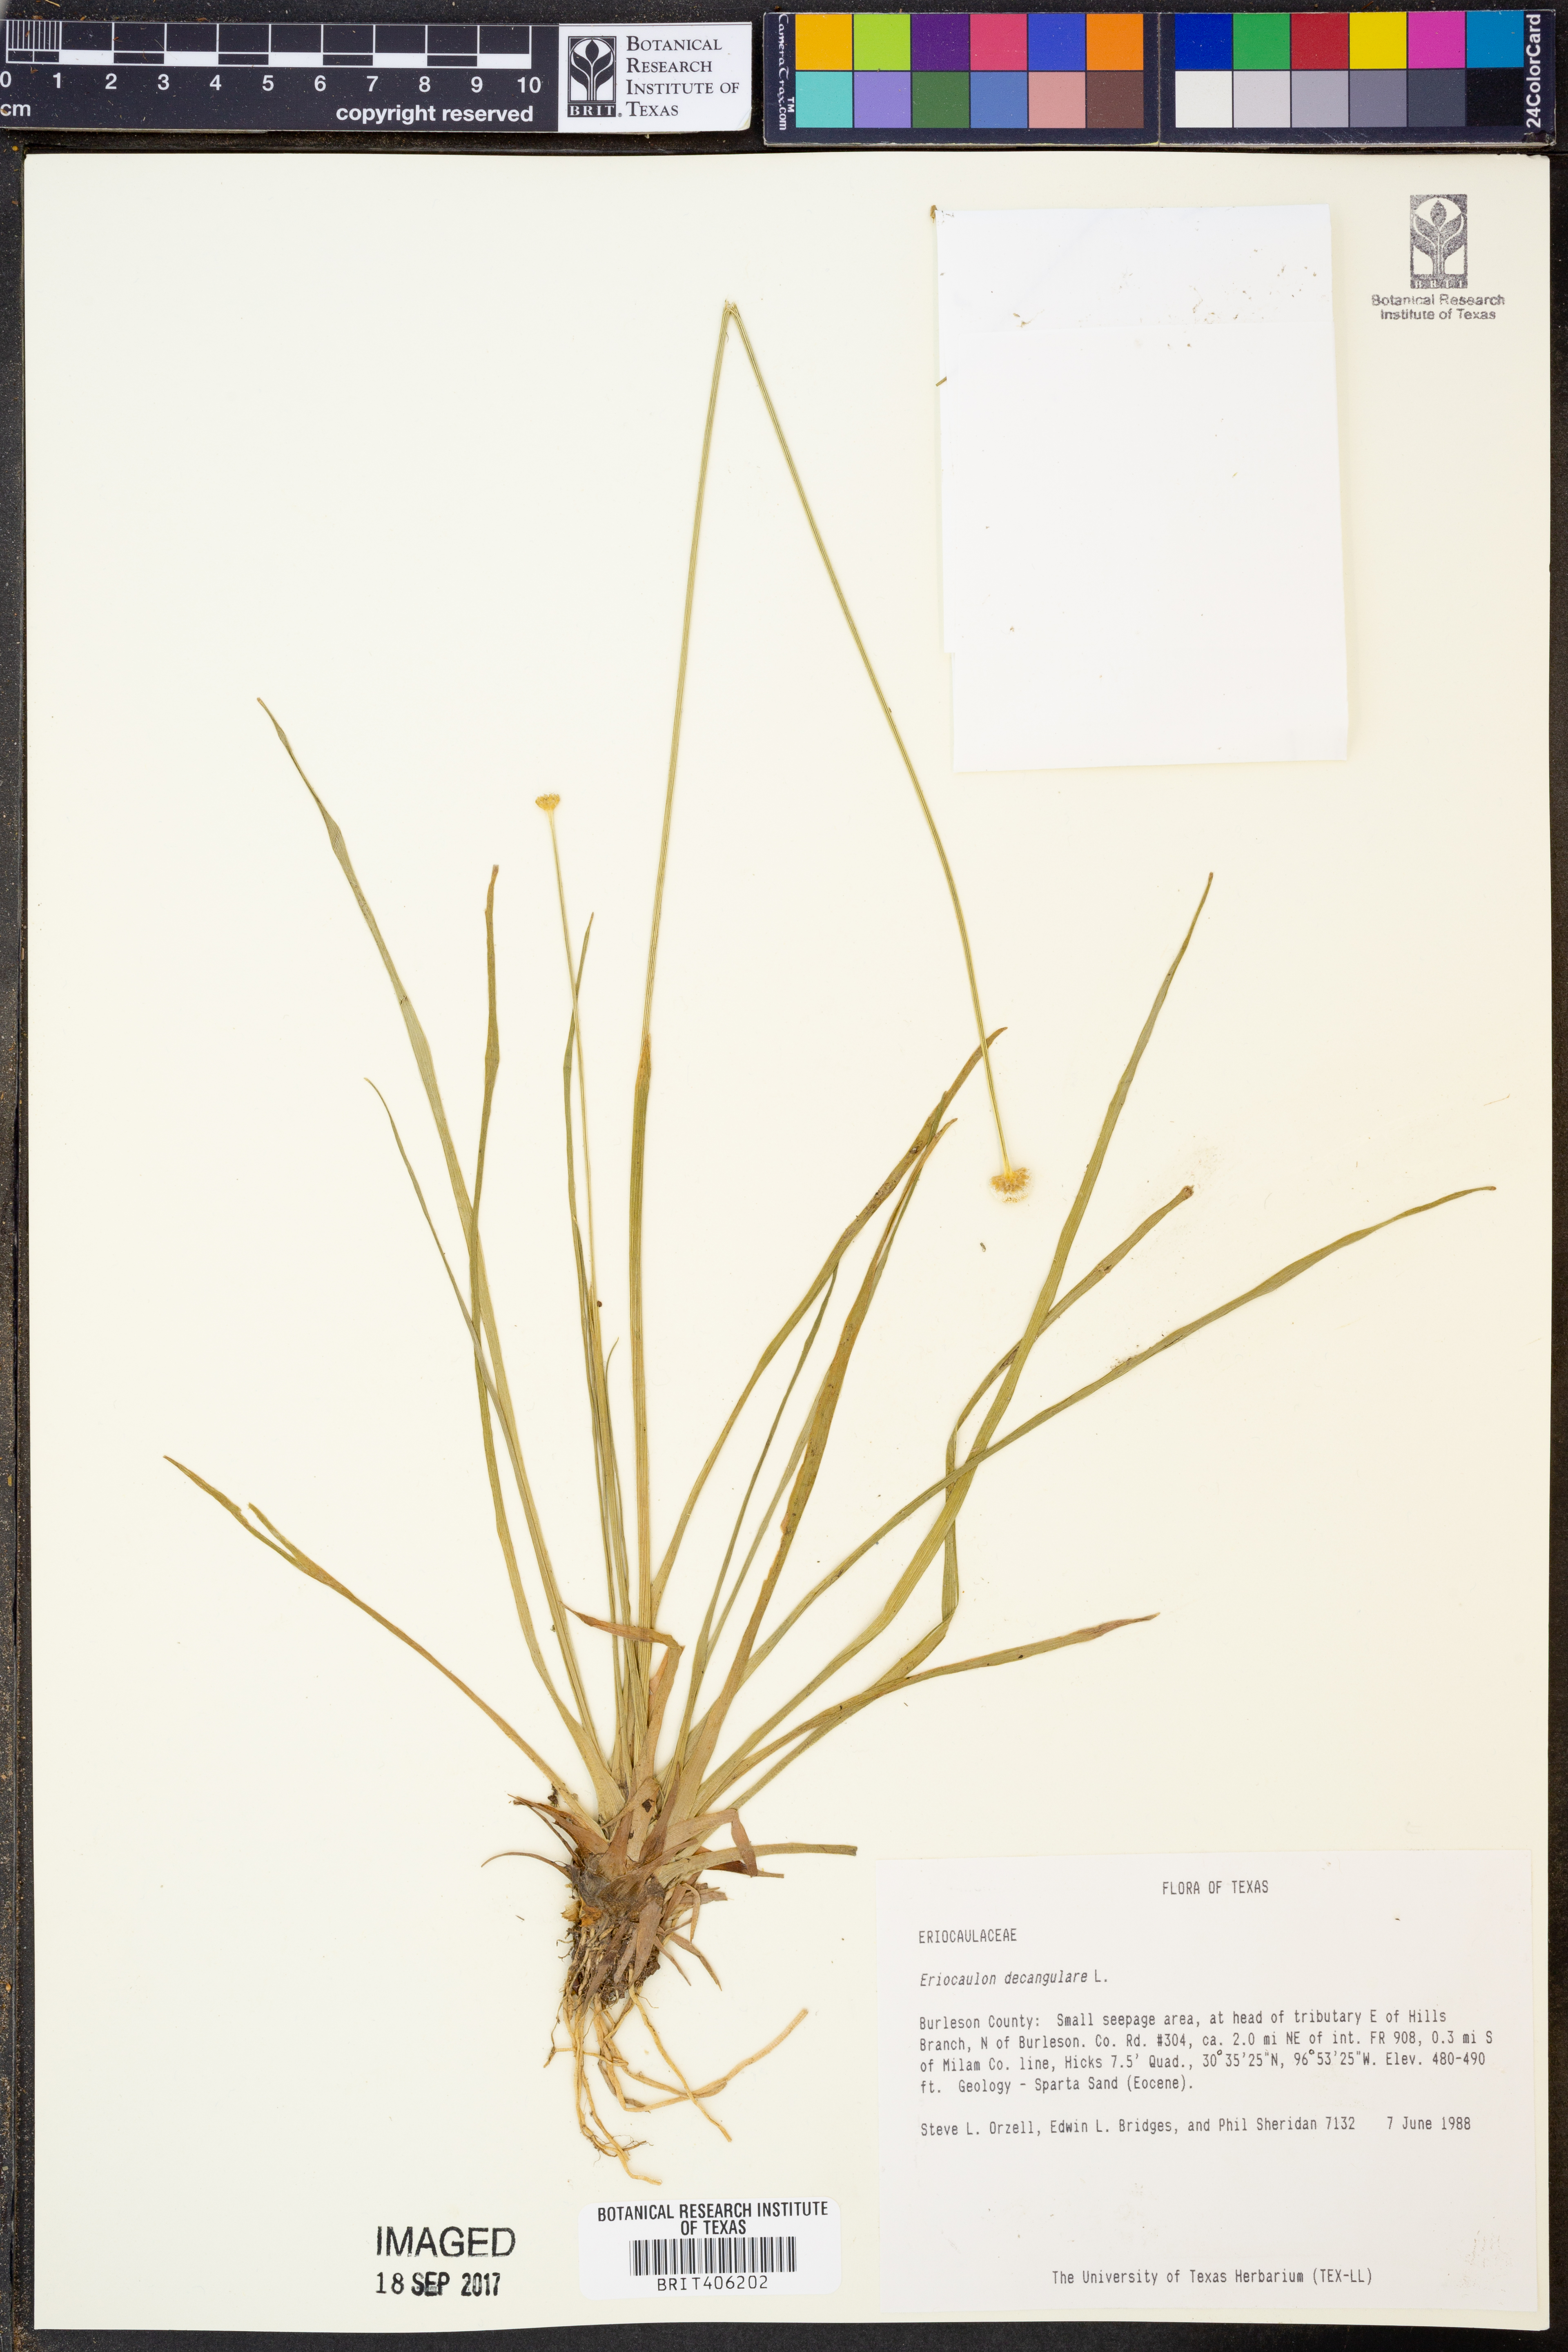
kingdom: Plantae
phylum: Tracheophyta
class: Liliopsida
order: Poales
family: Eriocaulaceae
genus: Eriocaulon
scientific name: Eriocaulon decangulare
